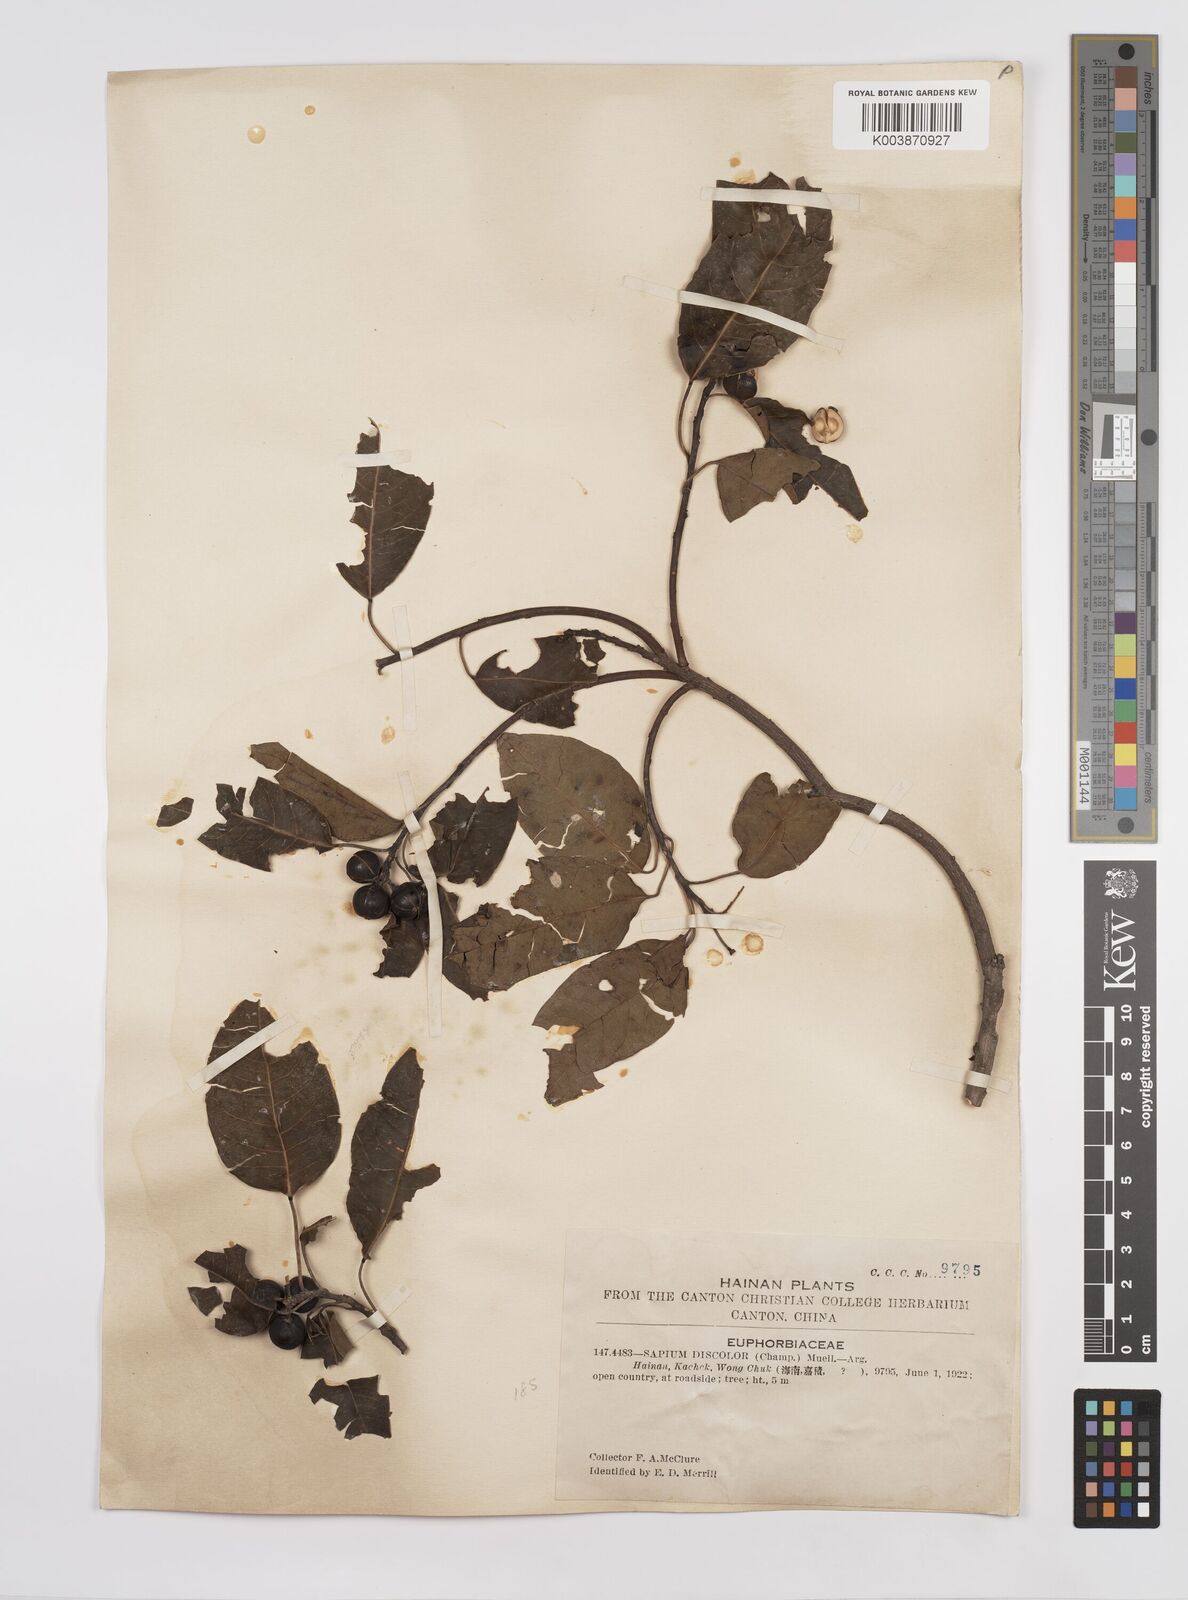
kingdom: Plantae
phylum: Tracheophyta
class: Magnoliopsida
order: Malpighiales
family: Euphorbiaceae
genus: Triadica
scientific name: Triadica cochinchinensis
